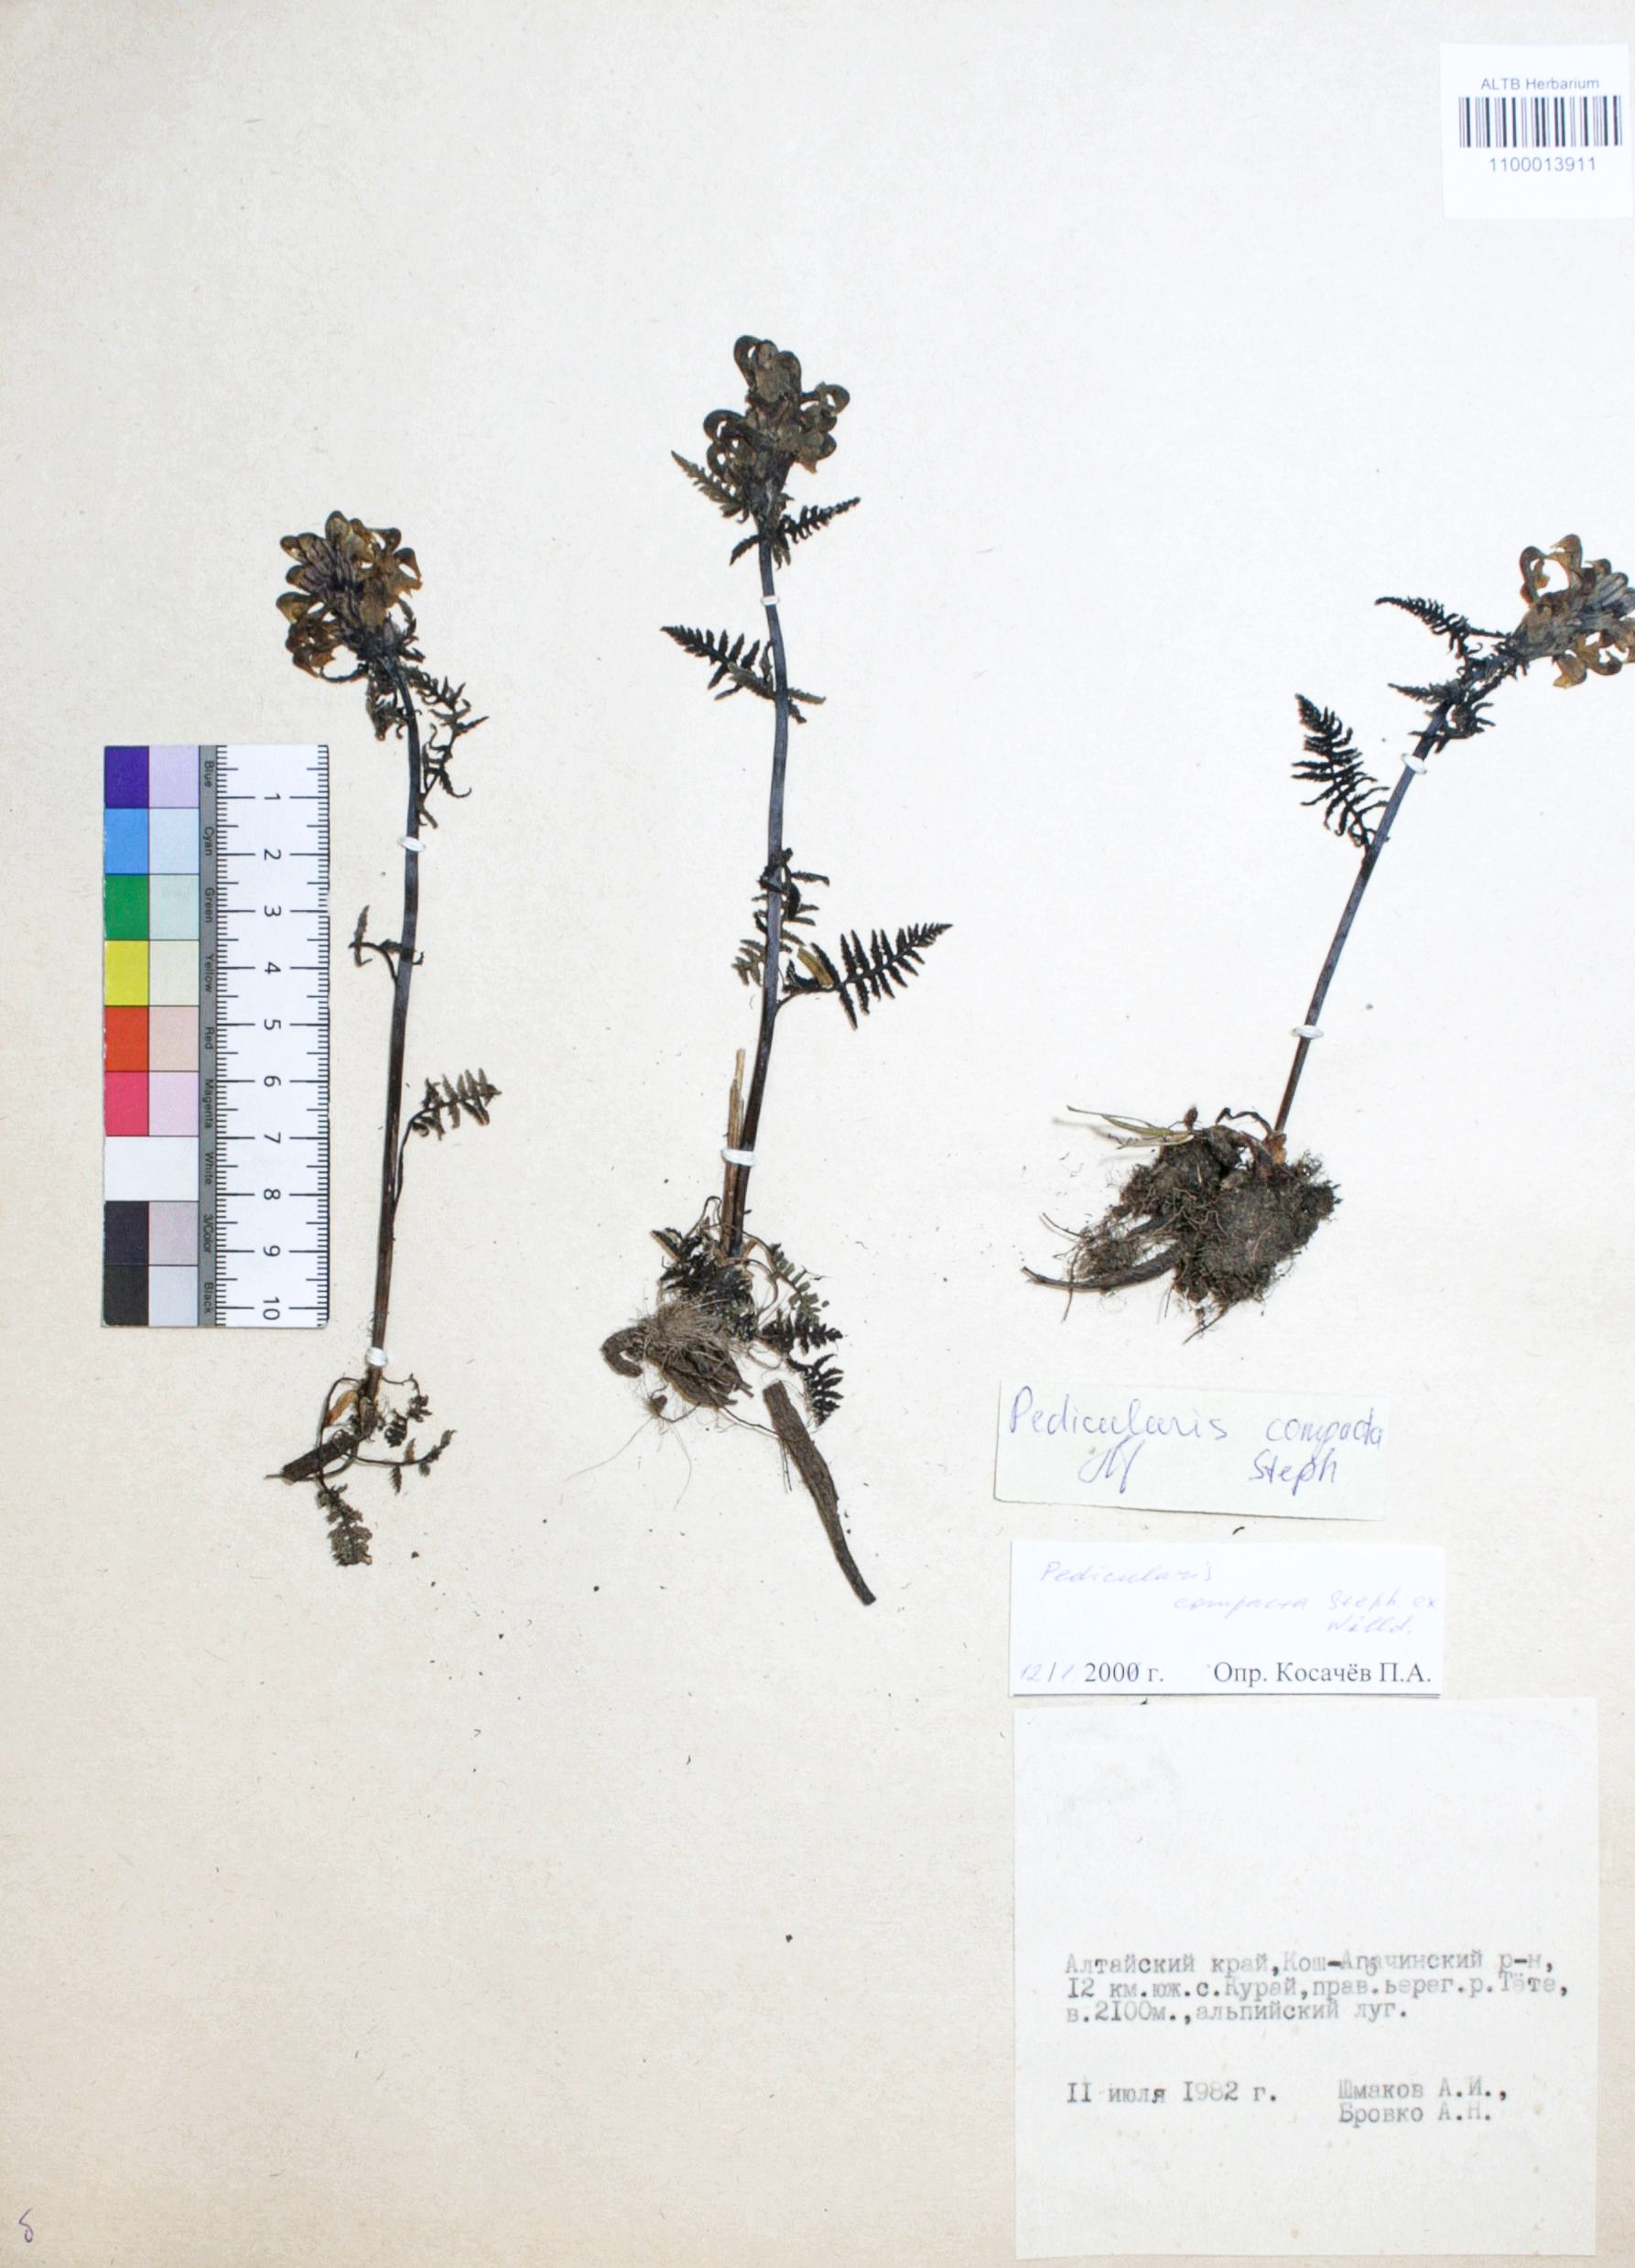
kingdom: Plantae
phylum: Tracheophyta
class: Magnoliopsida
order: Lamiales
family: Orobanchaceae
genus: Pedicularis
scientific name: Pedicularis compacta
